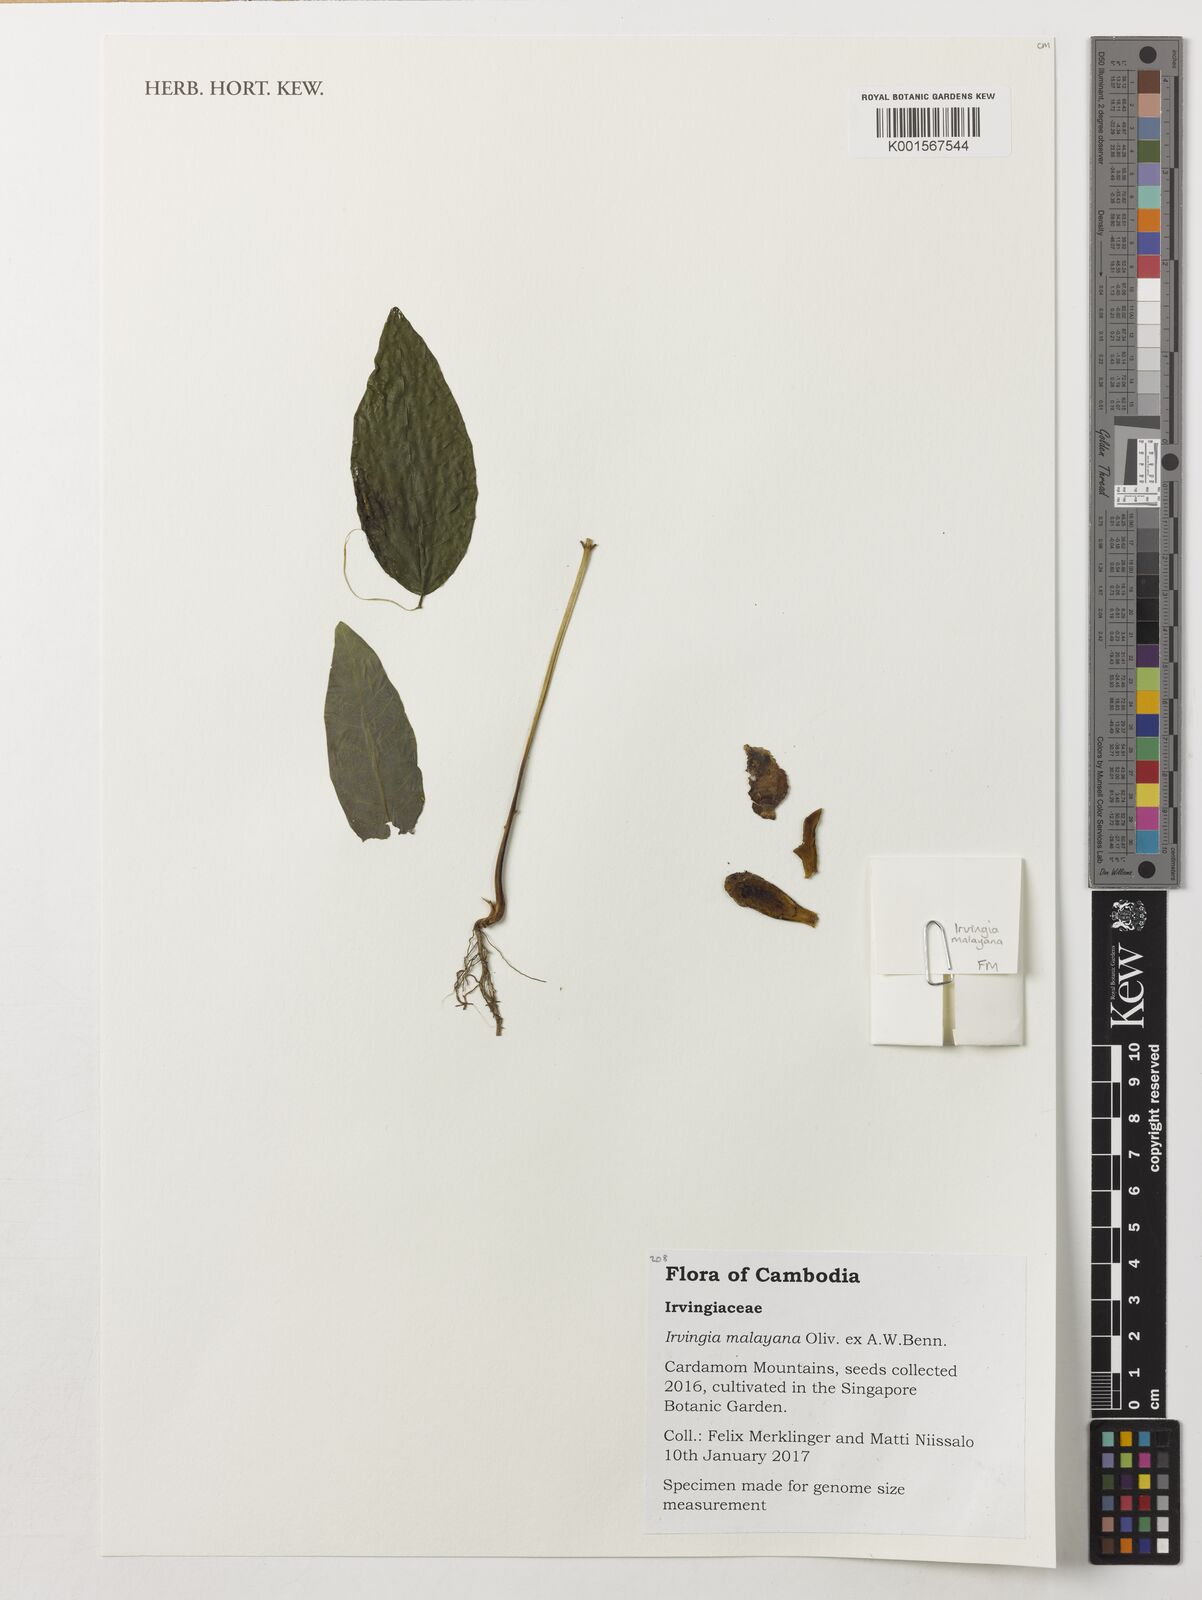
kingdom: Plantae
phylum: Tracheophyta
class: Magnoliopsida
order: Malpighiales
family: Irvingiaceae
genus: Irvingia
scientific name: Irvingia malayana
